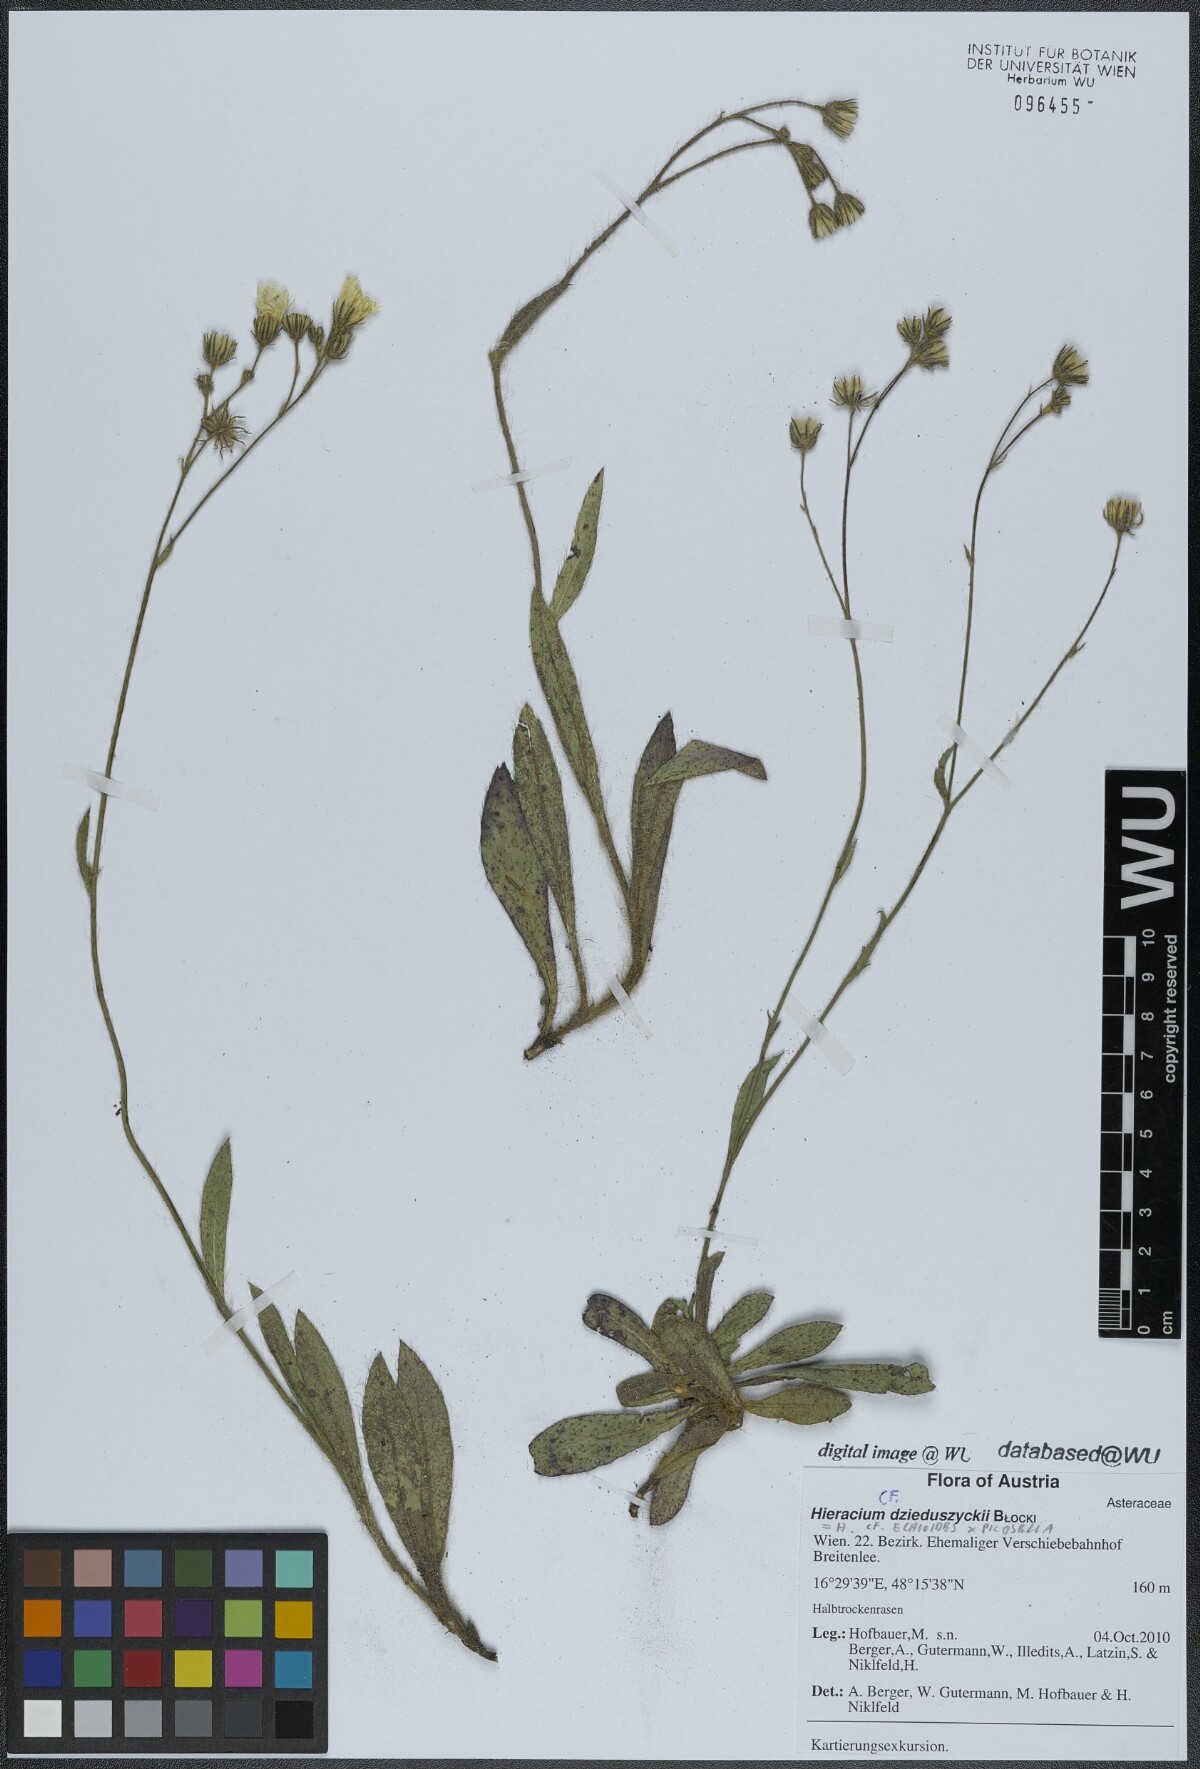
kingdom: Plantae
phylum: Tracheophyta
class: Magnoliopsida
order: Asterales
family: Asteraceae
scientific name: Asteraceae
